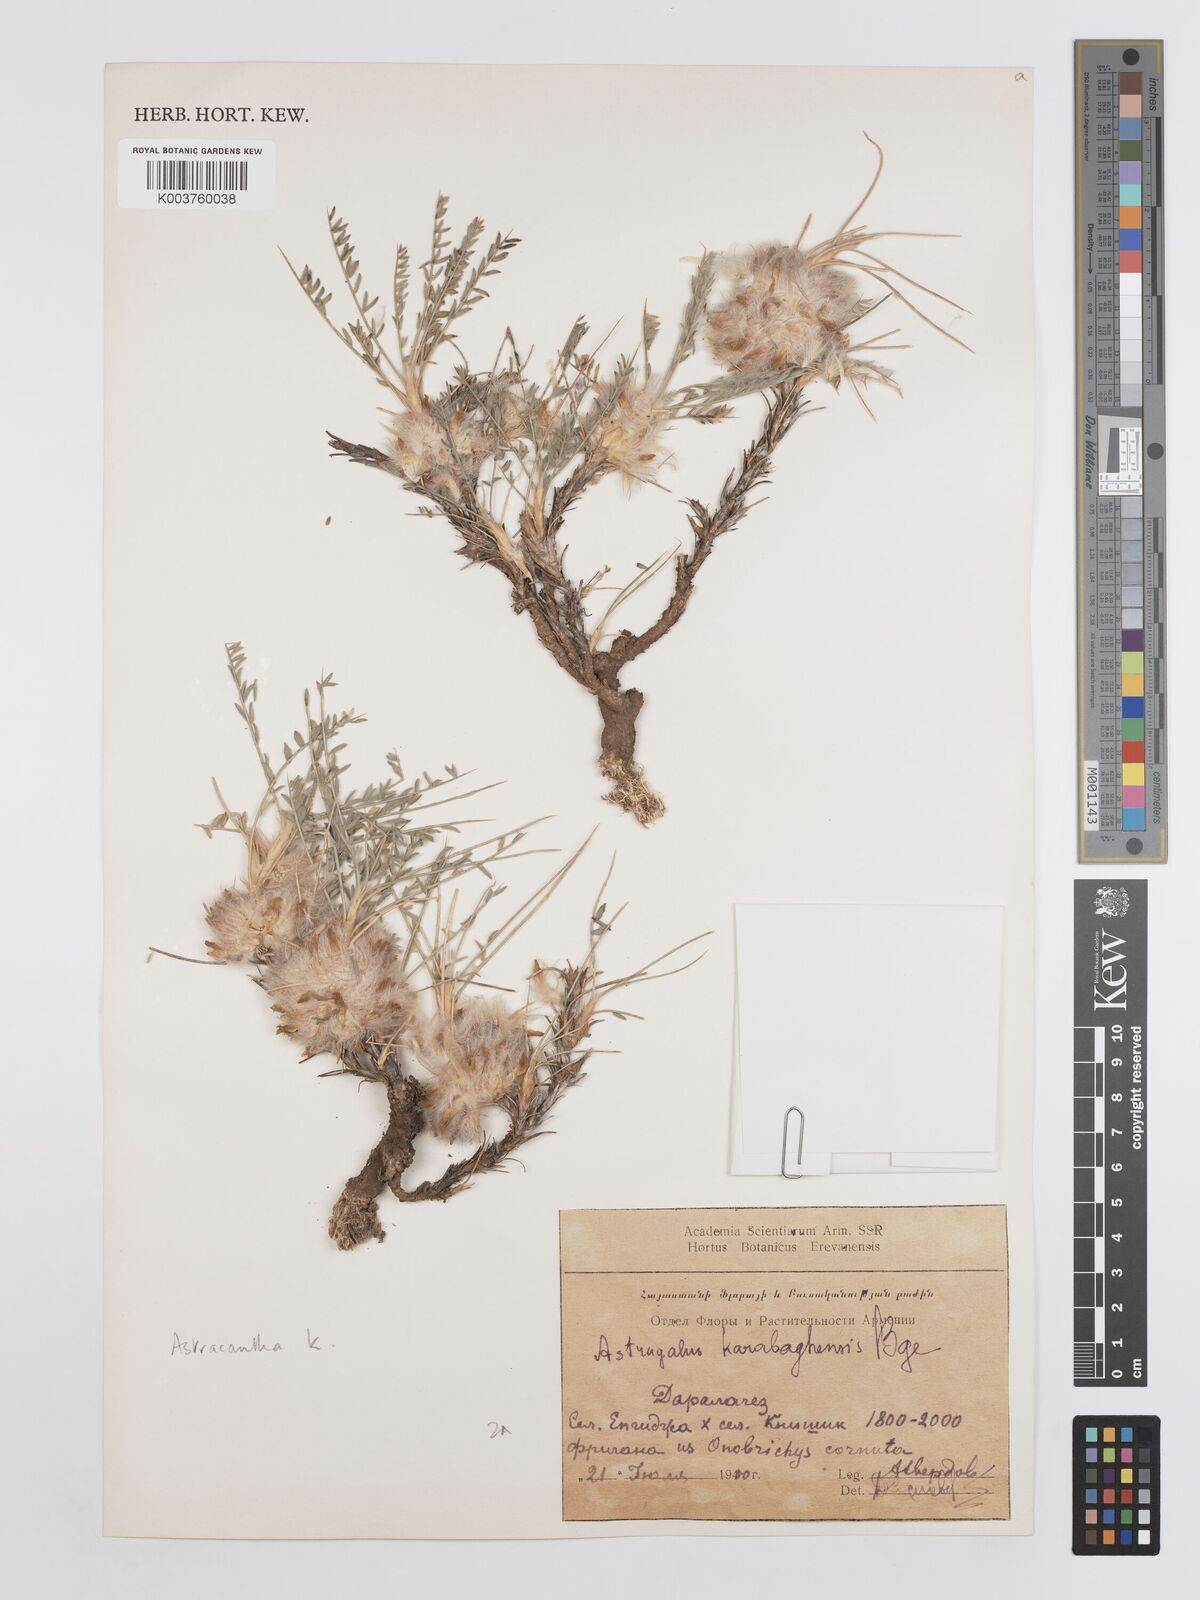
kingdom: Plantae
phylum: Tracheophyta
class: Magnoliopsida
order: Fabales
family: Fabaceae
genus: Astragalus
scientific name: Astragalus karabaghensis
